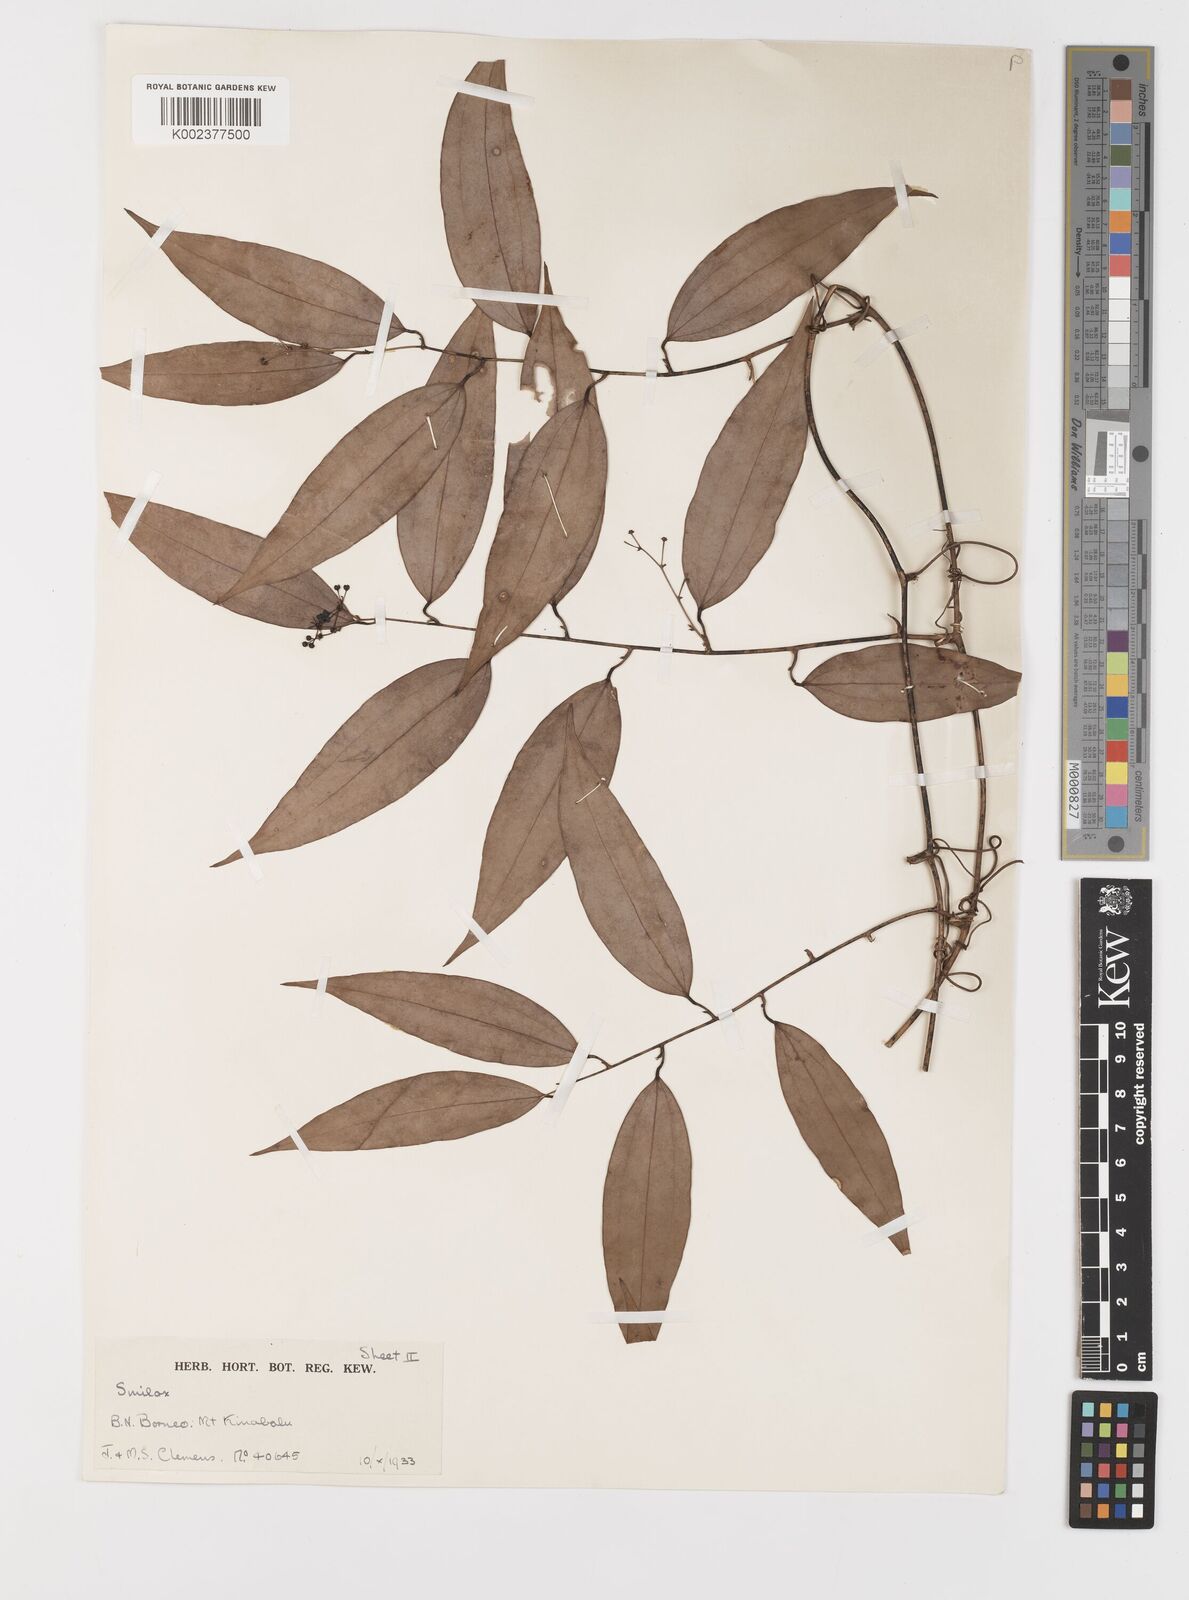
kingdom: Plantae
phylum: Tracheophyta
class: Liliopsida
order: Liliales
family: Smilacaceae
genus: Smilax
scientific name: Smilax corbularia
